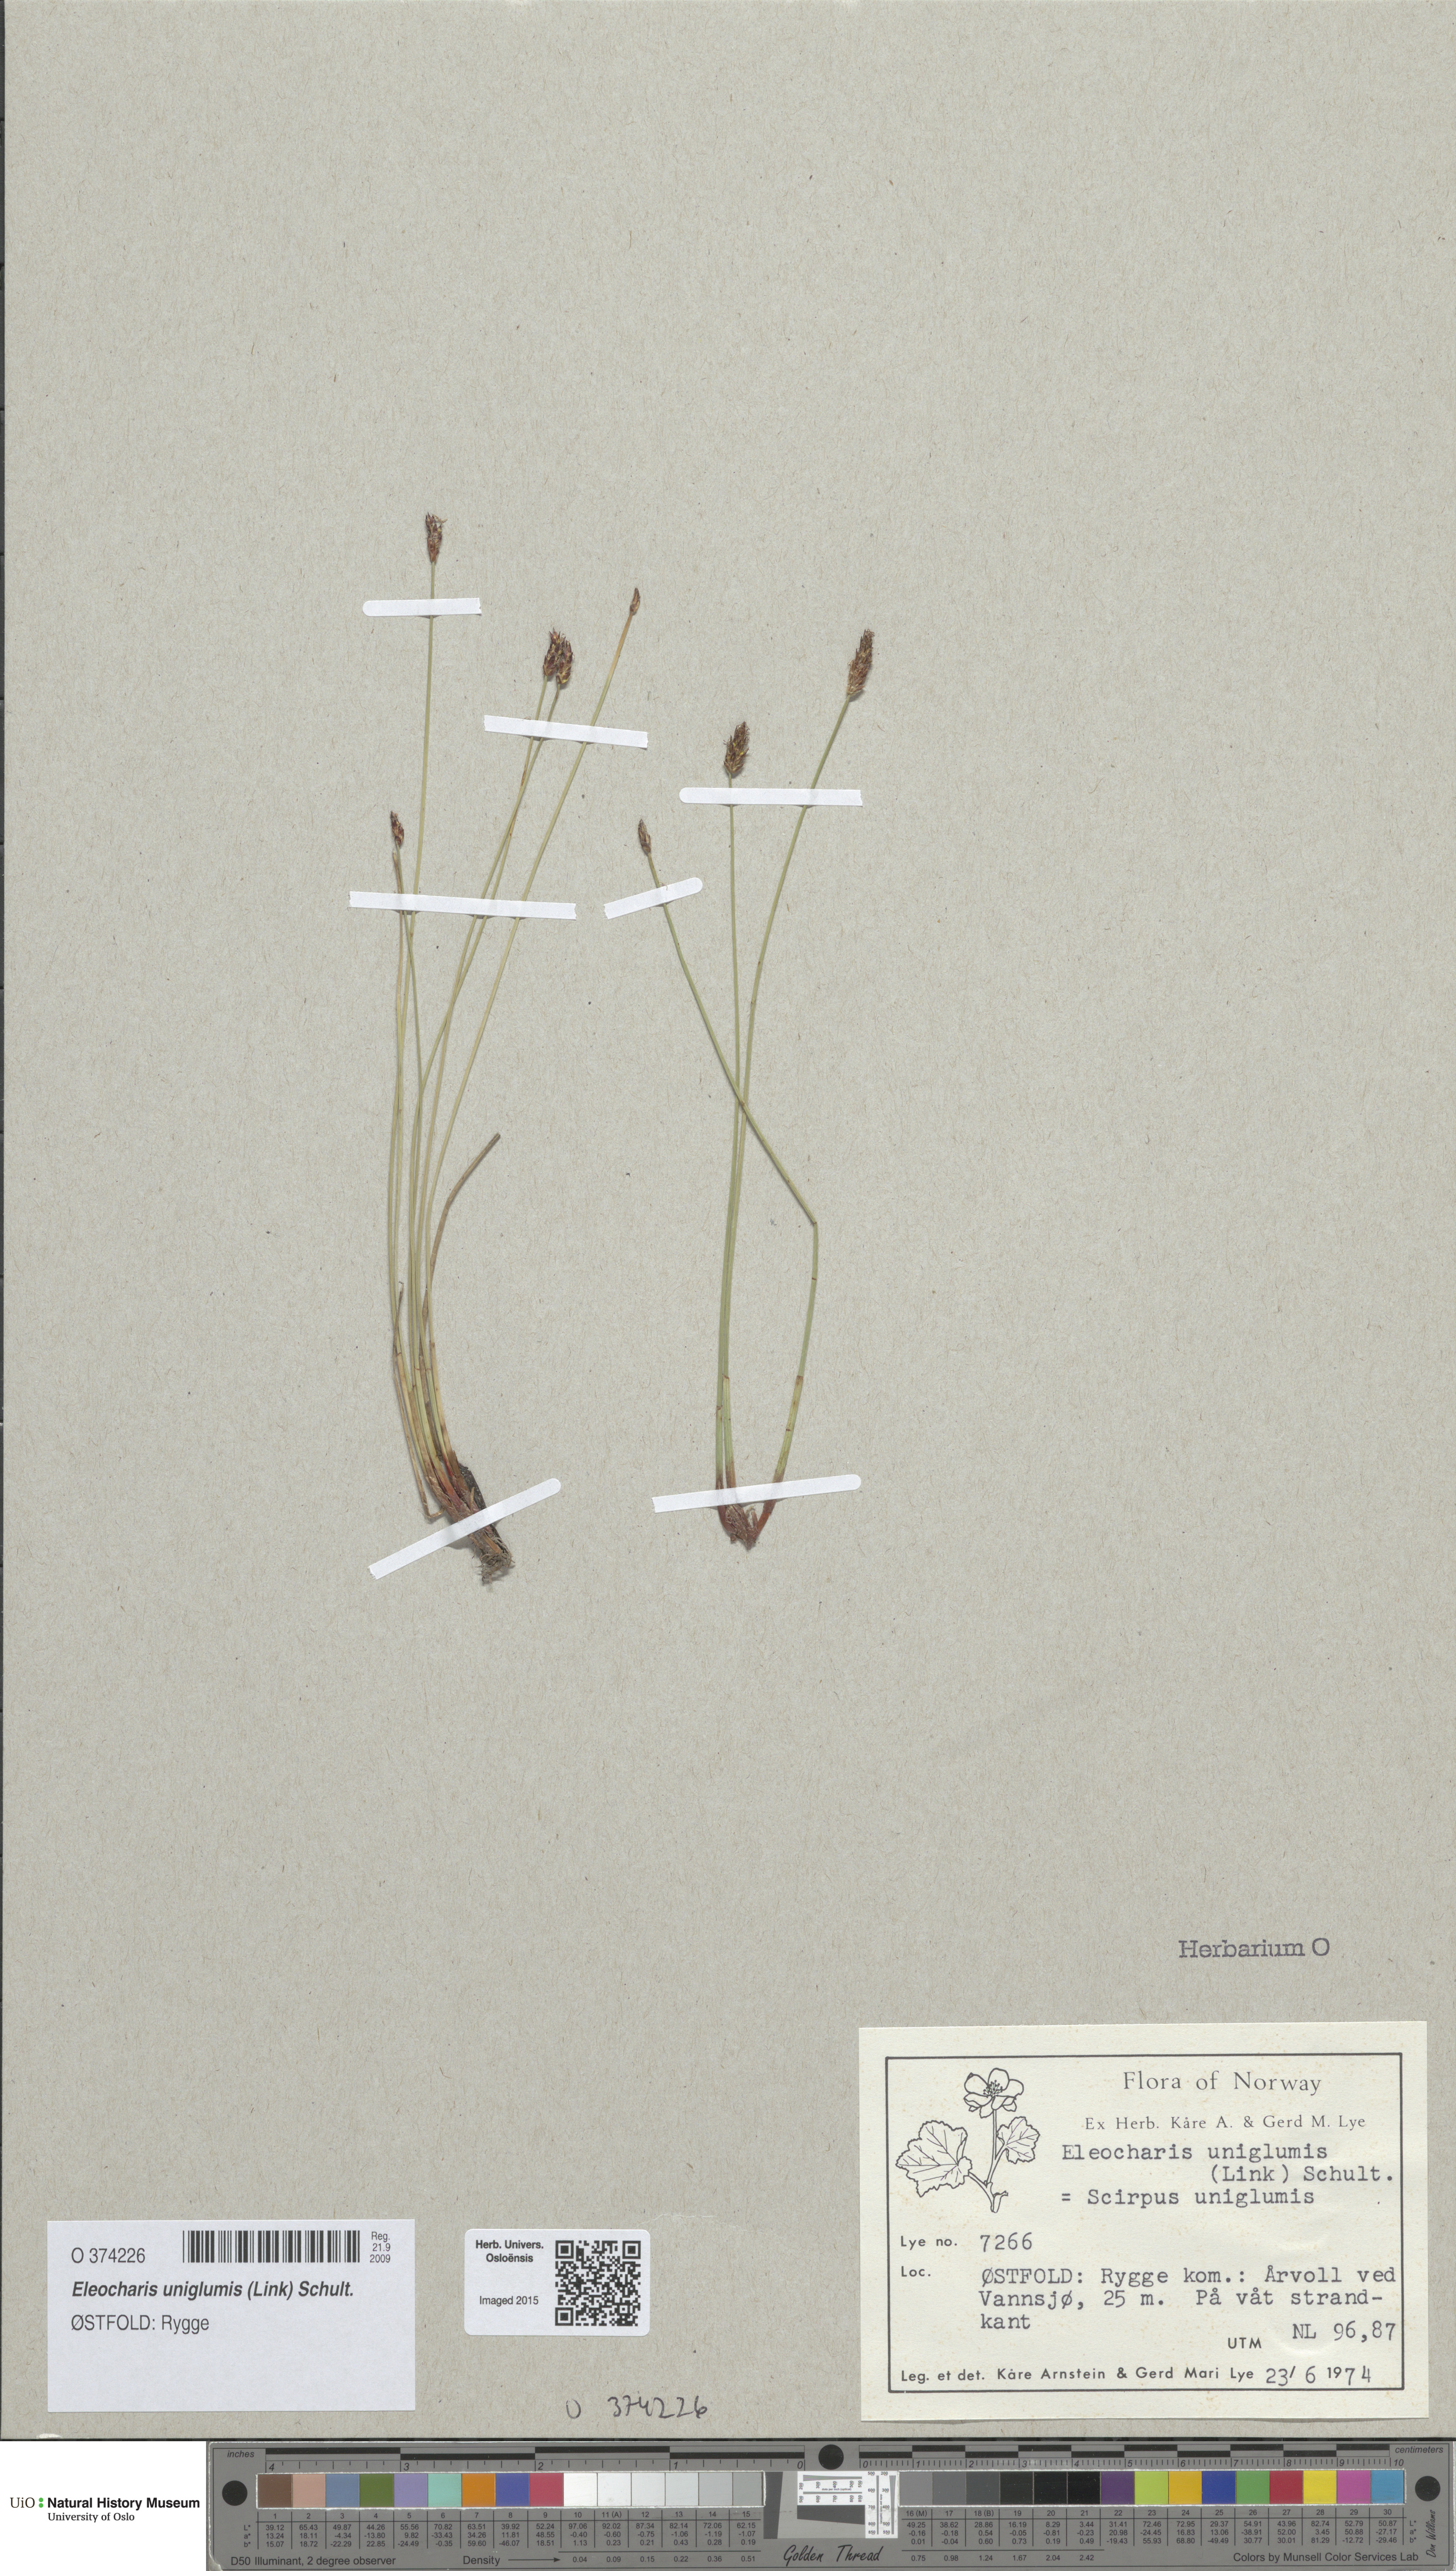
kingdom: Plantae
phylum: Tracheophyta
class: Liliopsida
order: Poales
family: Cyperaceae
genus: Eleocharis
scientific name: Eleocharis uniglumis
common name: Slender spike-rush
